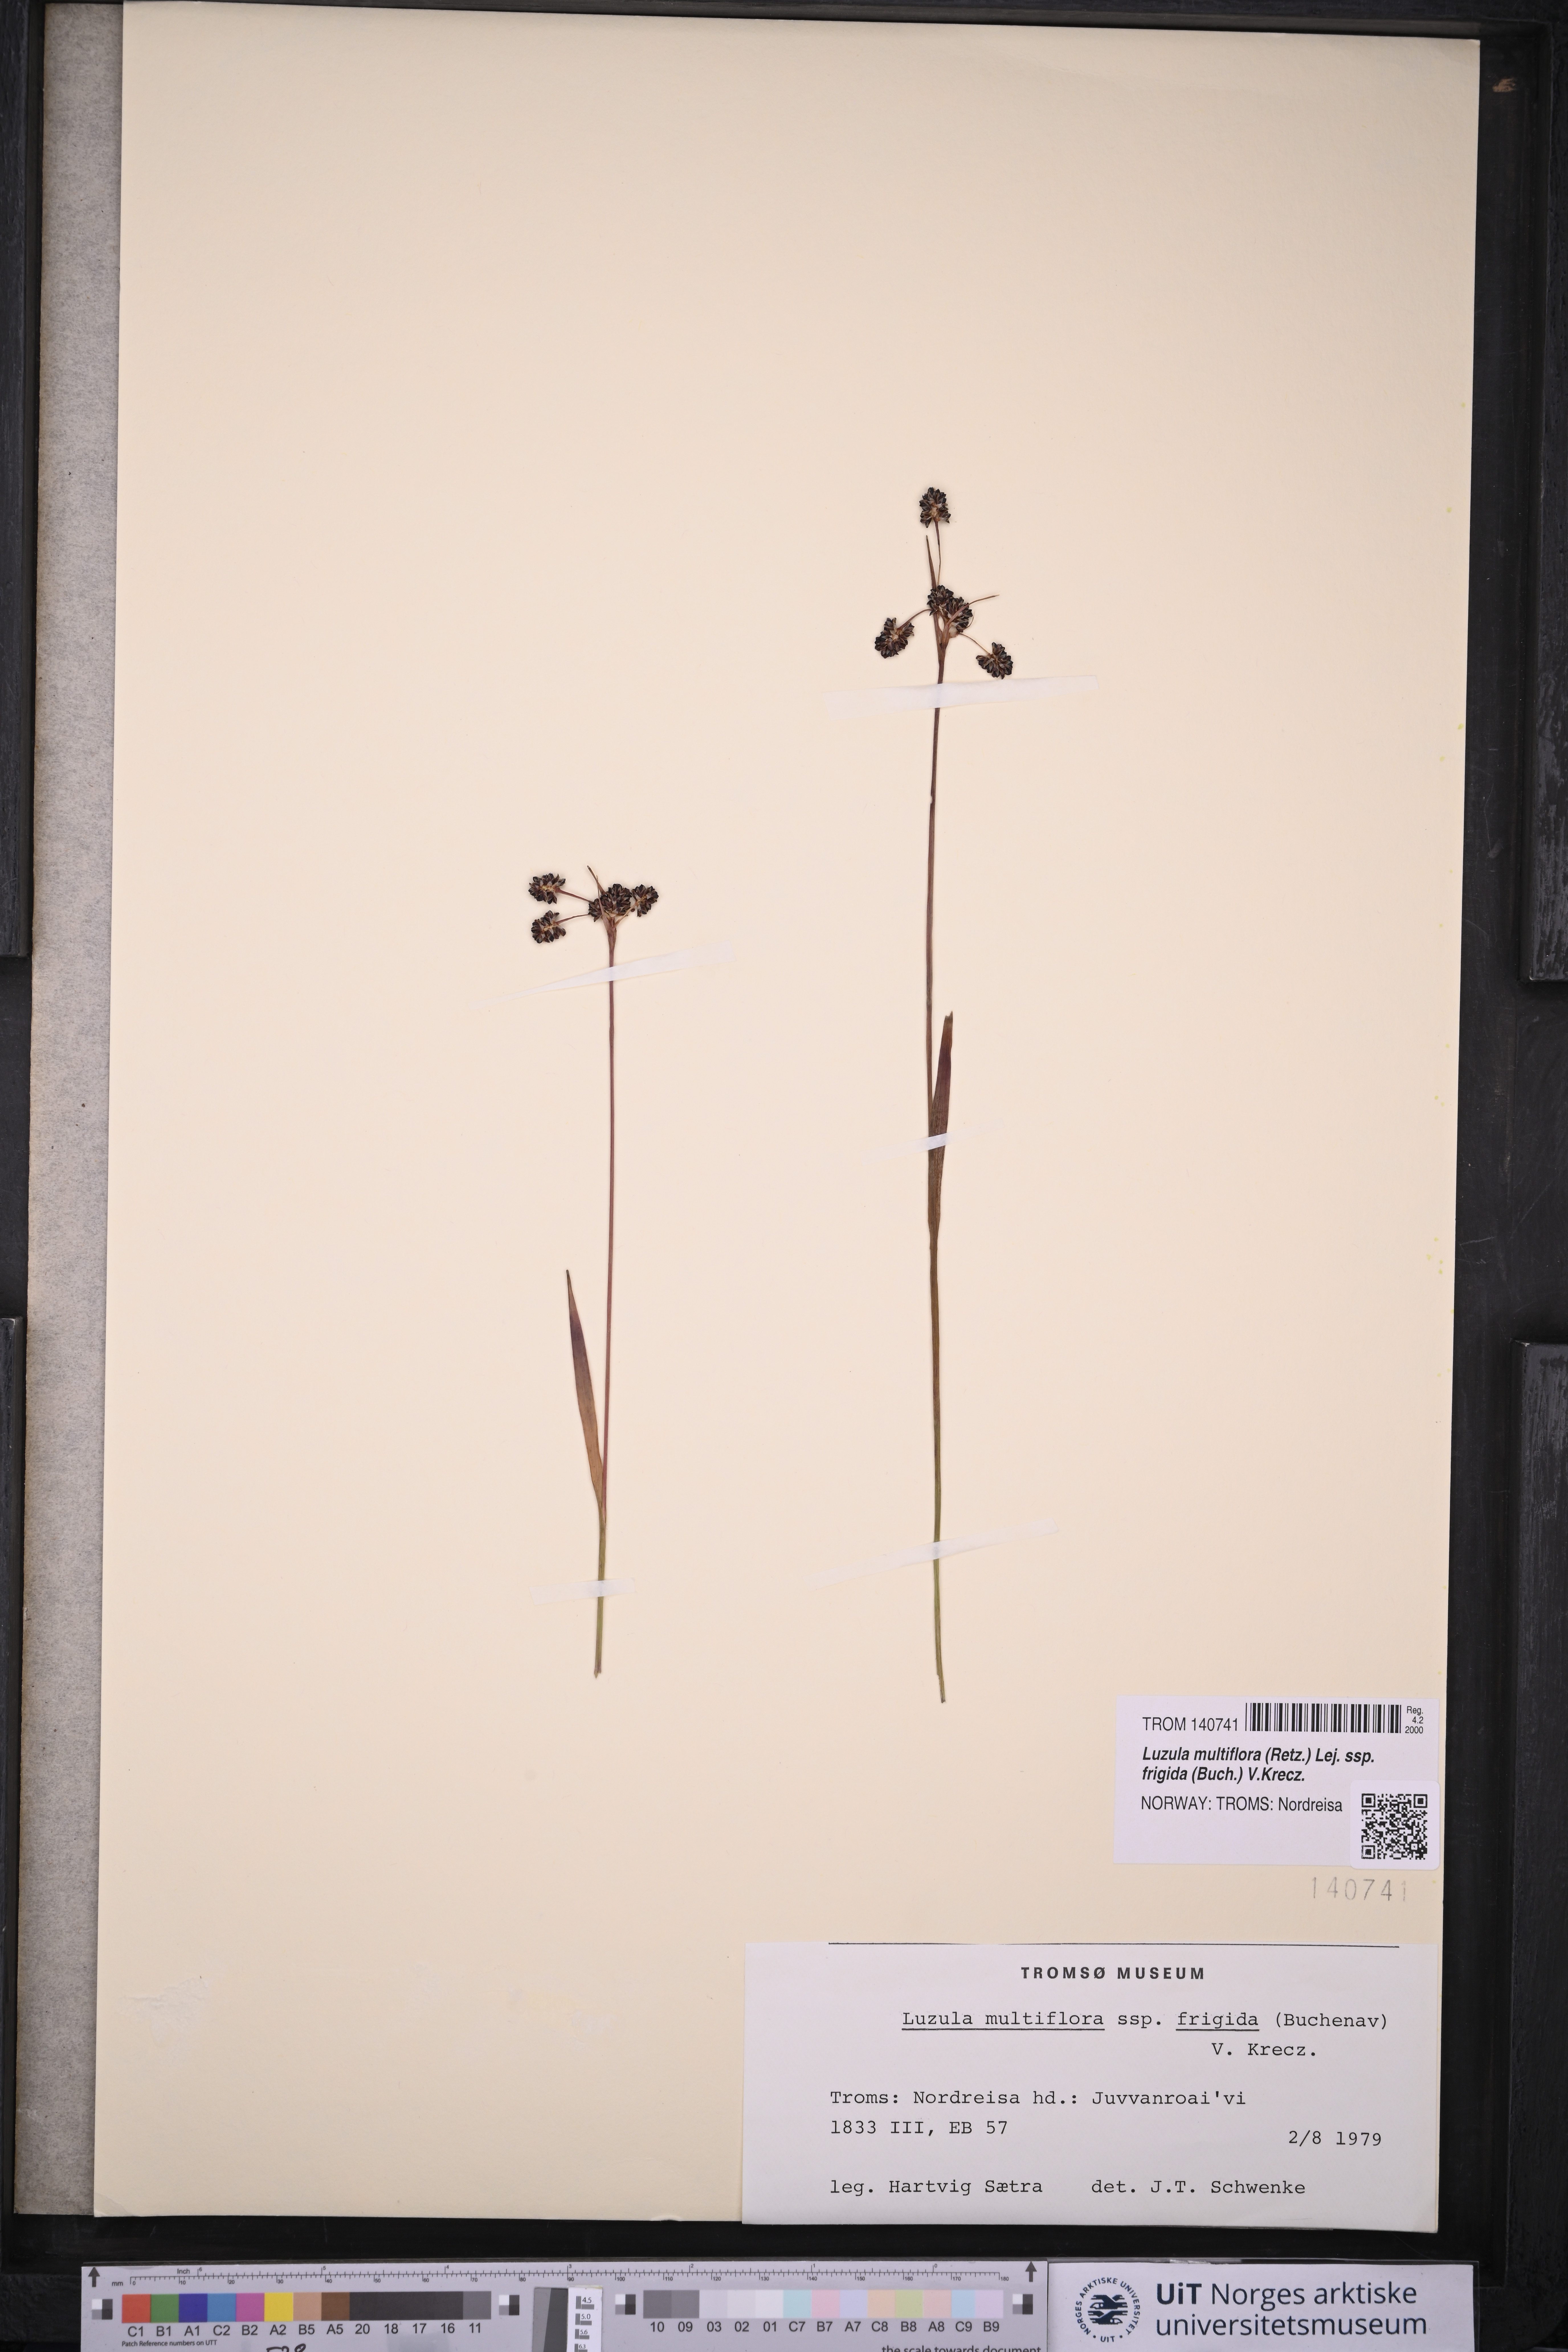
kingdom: Plantae
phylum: Tracheophyta
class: Liliopsida
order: Poales
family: Juncaceae
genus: Luzula
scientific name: Luzula multiflora
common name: Heath wood-rush
